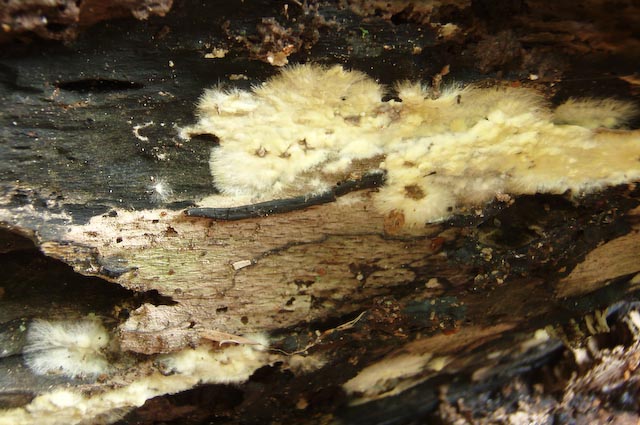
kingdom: Fungi
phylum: Basidiomycota
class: Agaricomycetes
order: Boletales
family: Coniophoraceae
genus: Coniophora
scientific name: Coniophora puteana
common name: gul tømmersvamp
